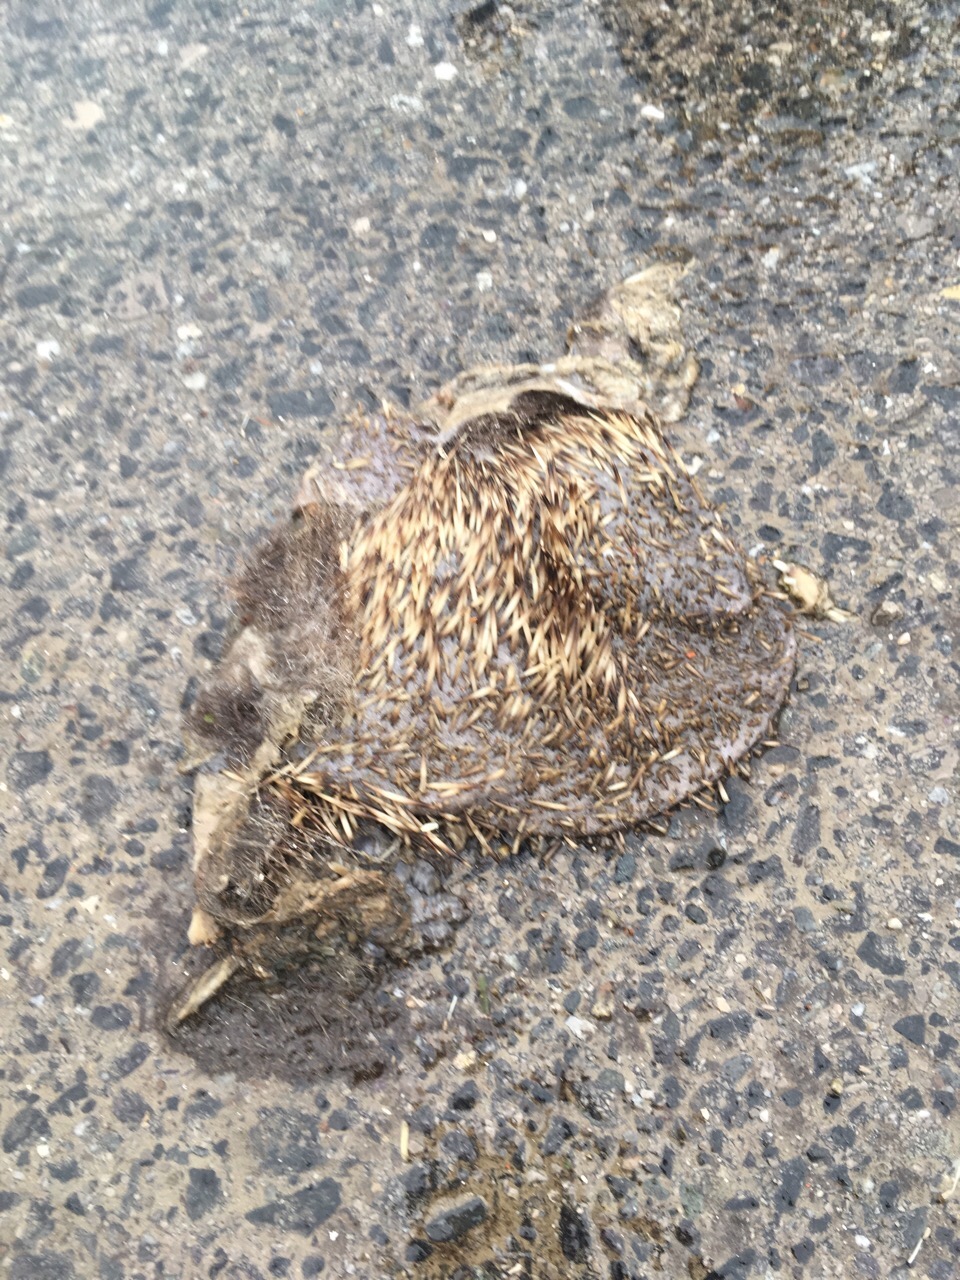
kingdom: Animalia
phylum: Chordata
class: Mammalia
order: Erinaceomorpha
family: Erinaceidae
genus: Erinaceus
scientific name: Erinaceus
